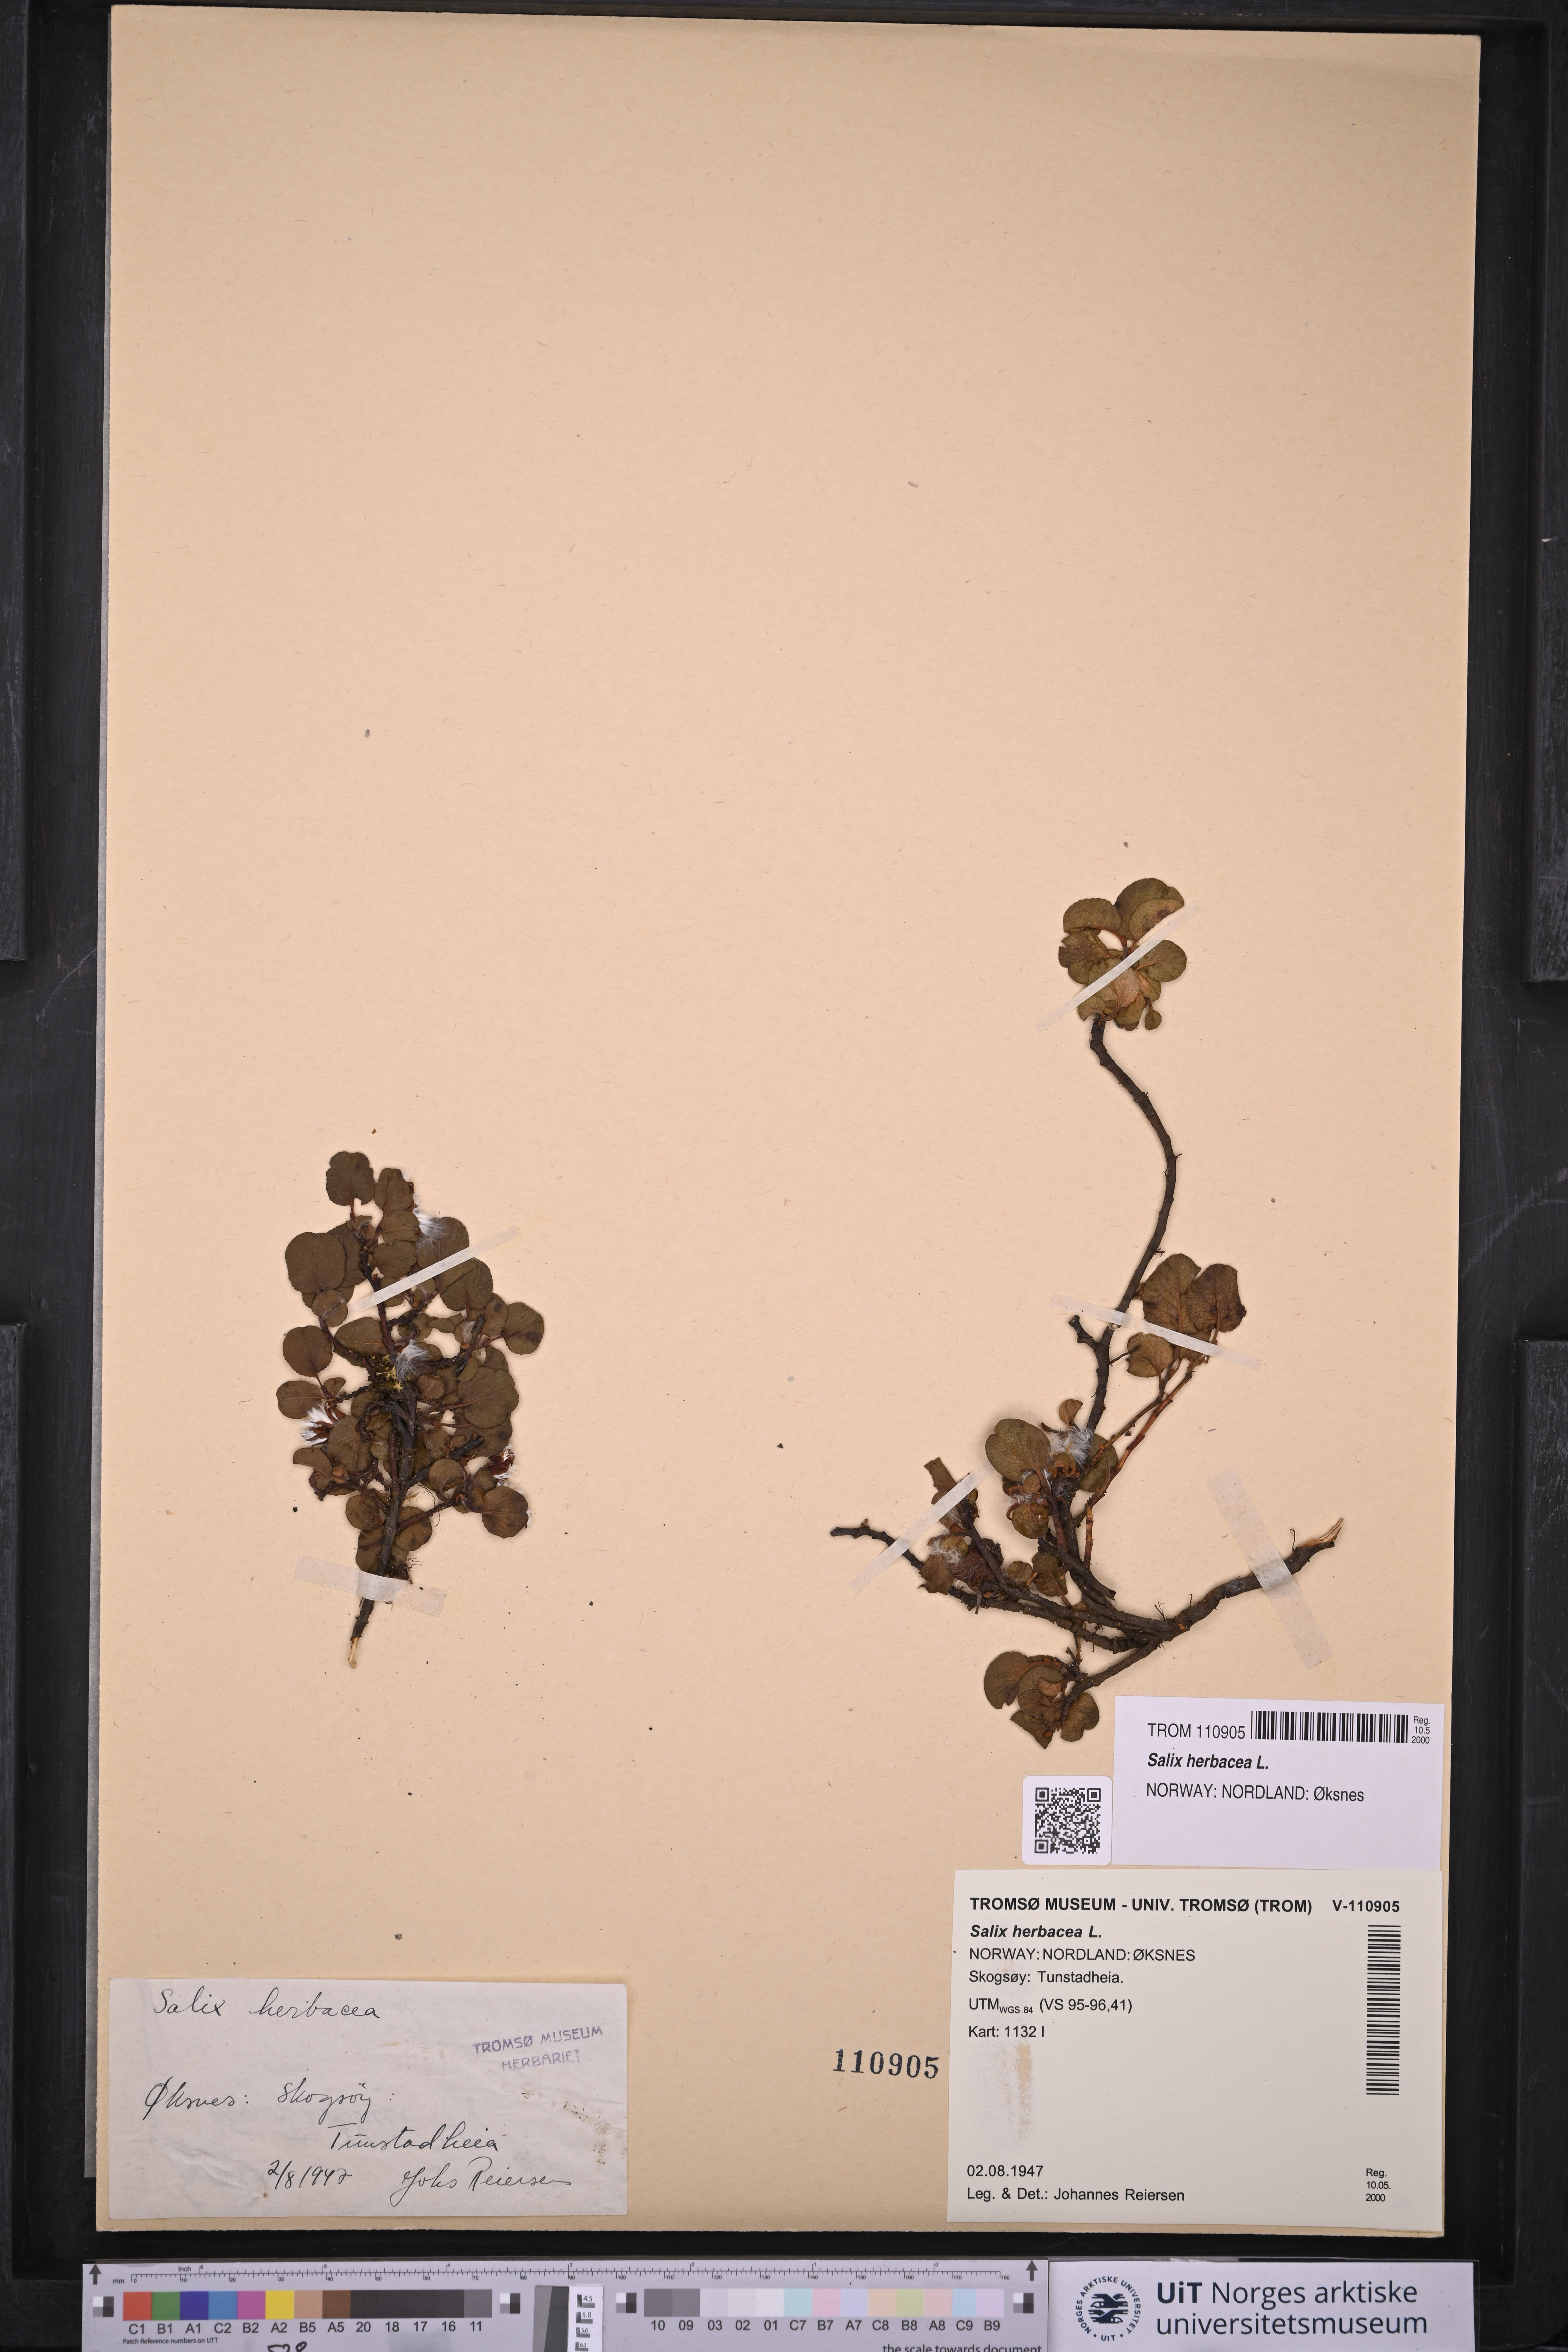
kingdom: Plantae
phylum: Tracheophyta
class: Magnoliopsida
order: Malpighiales
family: Salicaceae
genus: Salix
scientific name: Salix herbacea
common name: Dwarf willow
